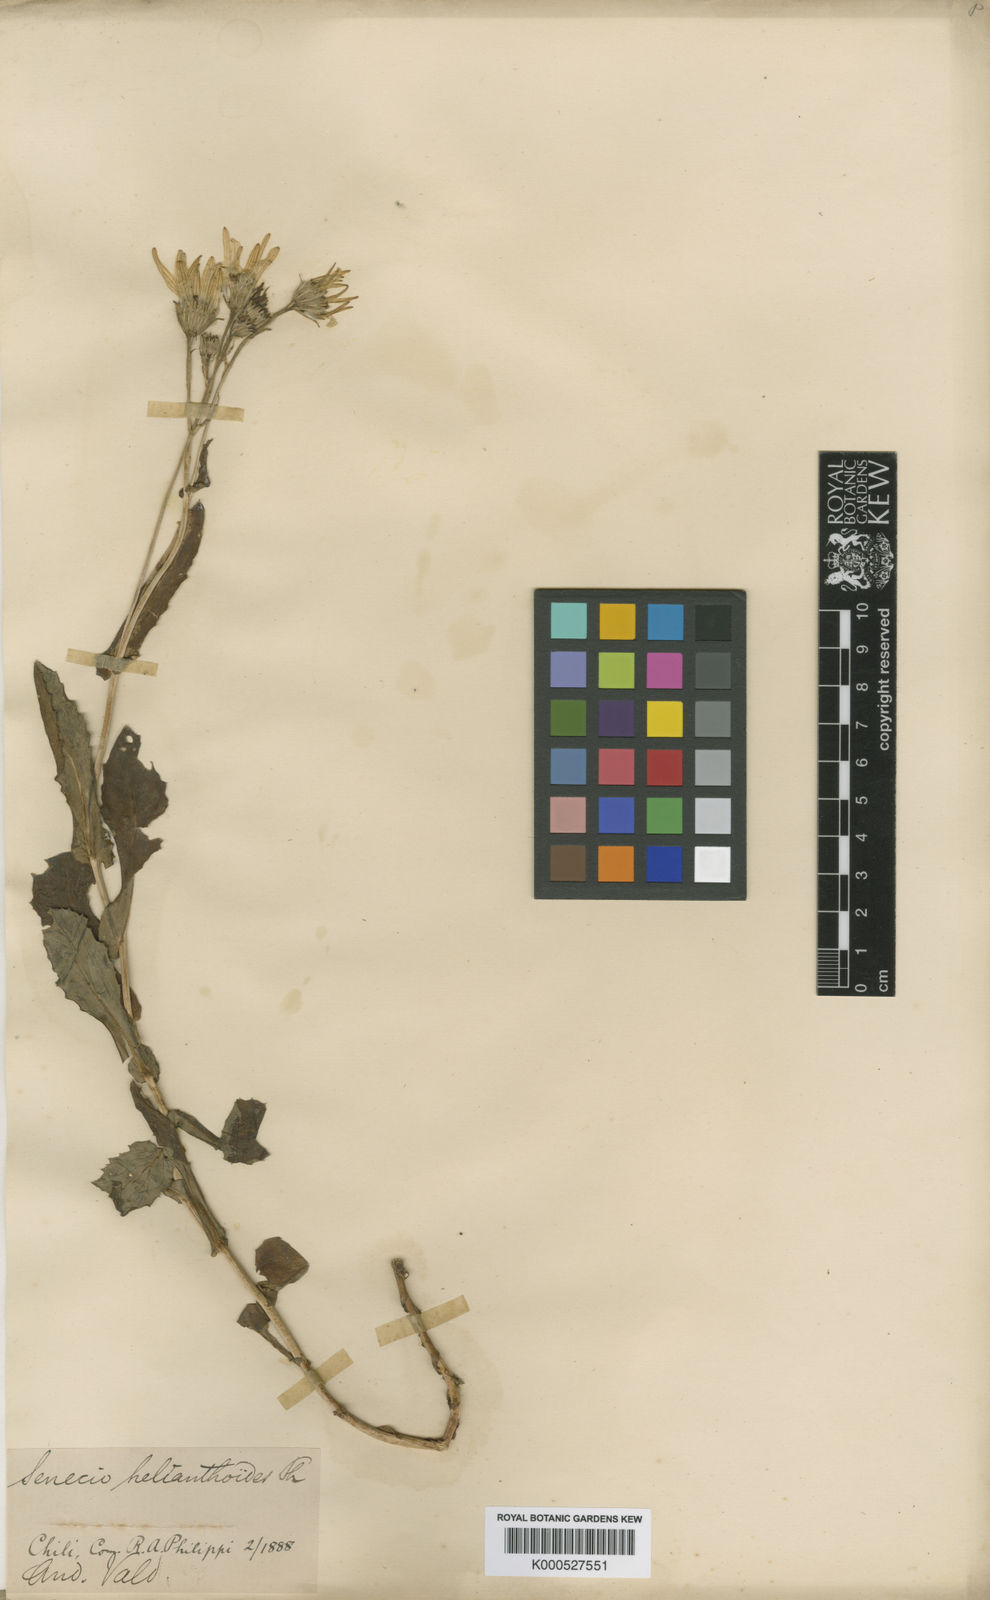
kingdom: Plantae
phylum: Tracheophyta
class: Magnoliopsida
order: Asterales
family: Asteraceae
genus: Senecio
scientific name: Senecio prenanthifolius
